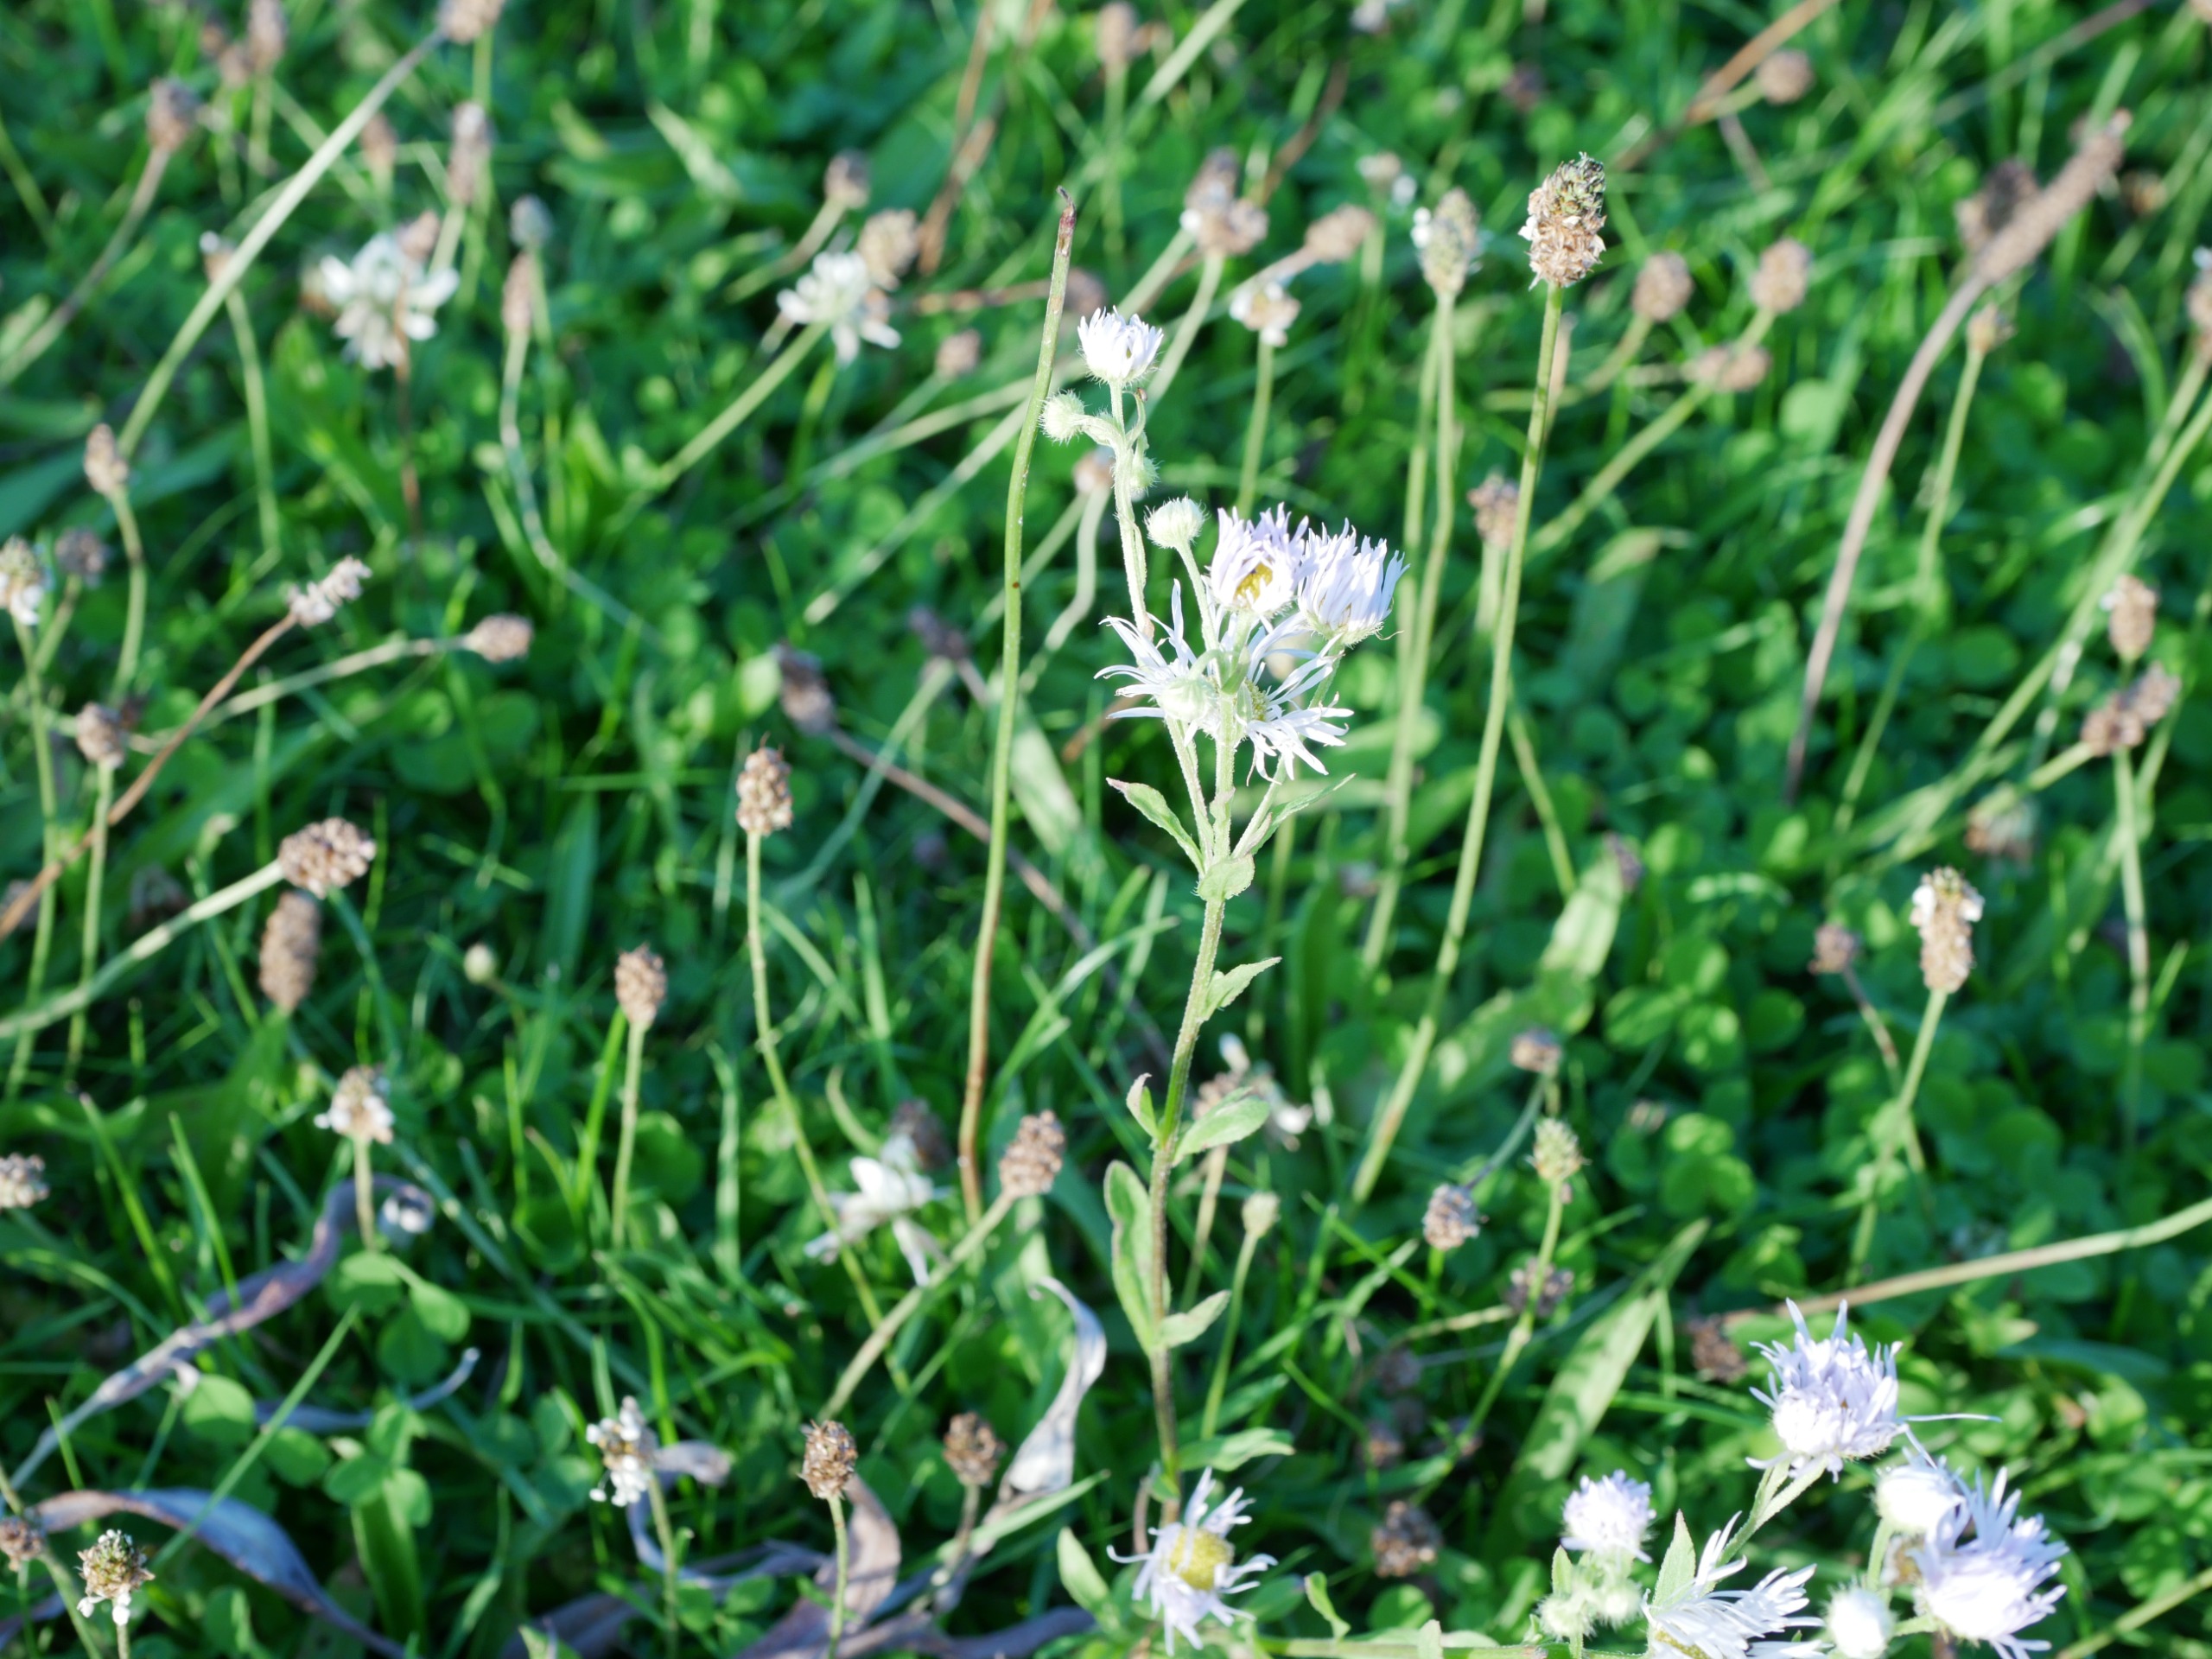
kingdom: Plantae
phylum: Tracheophyta
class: Magnoliopsida
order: Asterales
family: Asteraceae
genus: Erigeron
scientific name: Erigeron annuus
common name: Smalstråle
